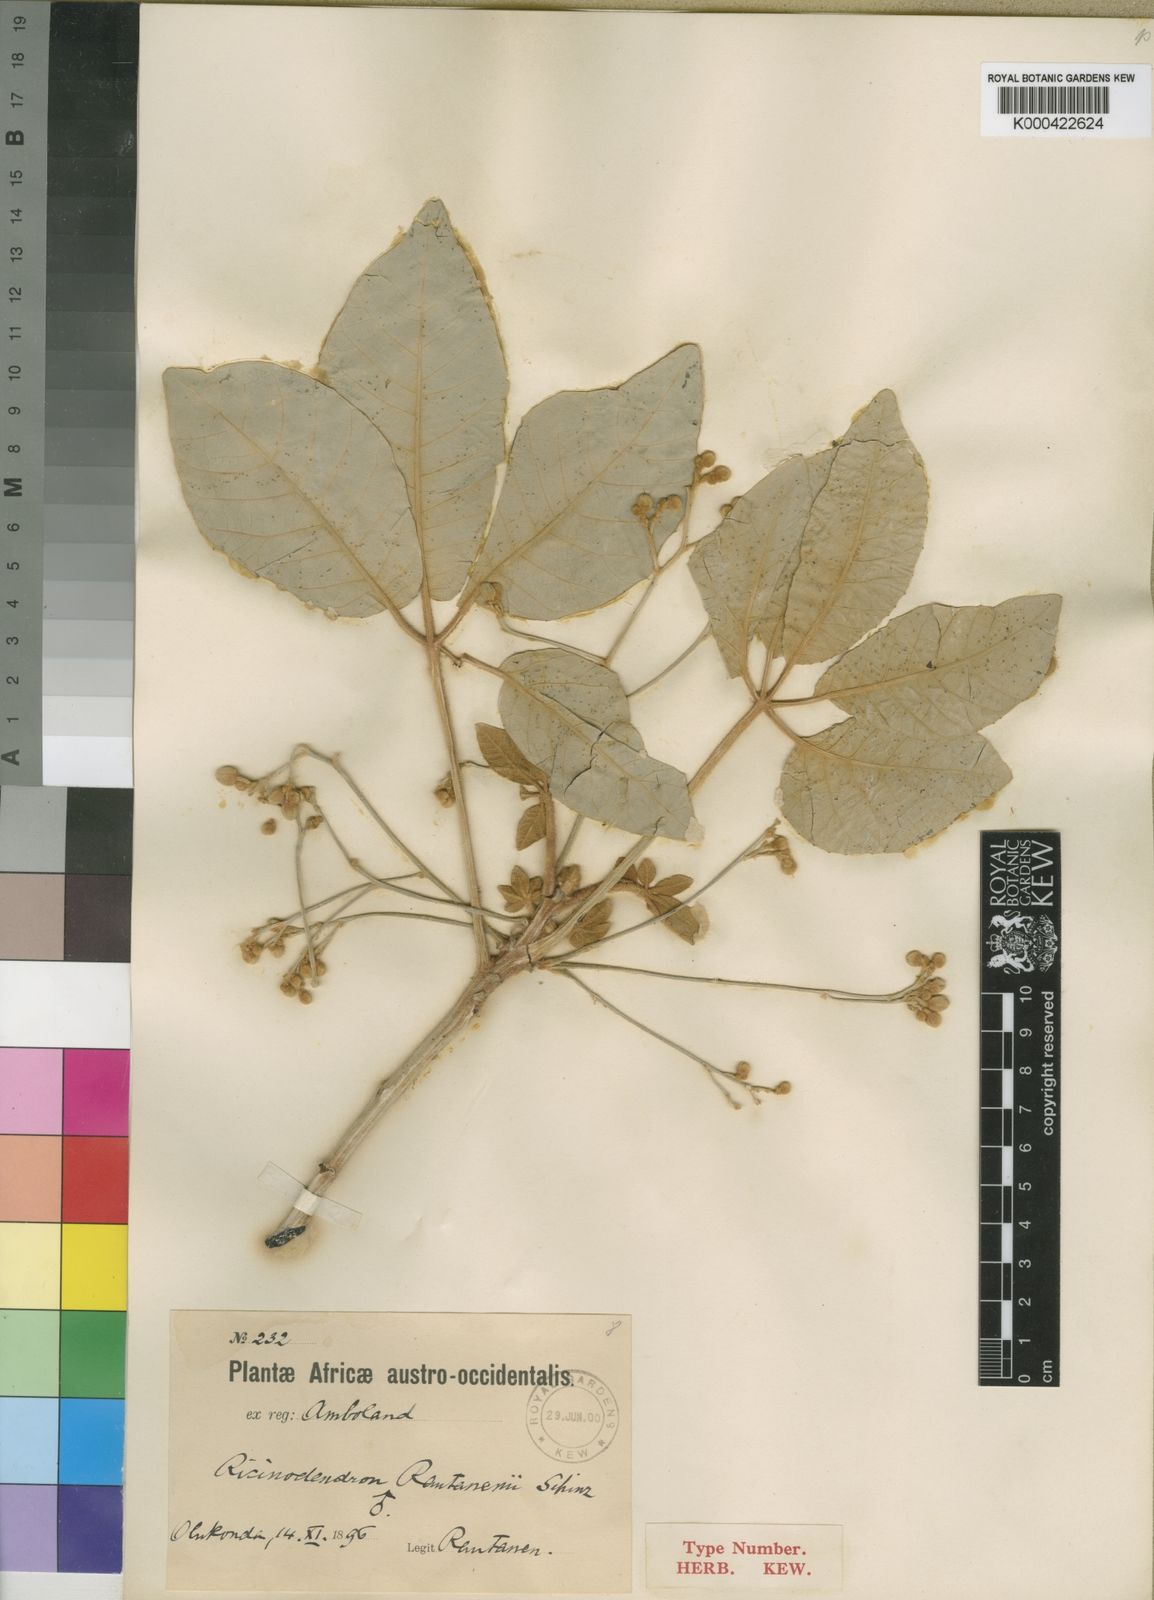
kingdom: Plantae
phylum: Tracheophyta
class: Magnoliopsida
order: Malpighiales
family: Euphorbiaceae
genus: Schinziophyton
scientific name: Schinziophyton rautanenii
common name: Manketti
